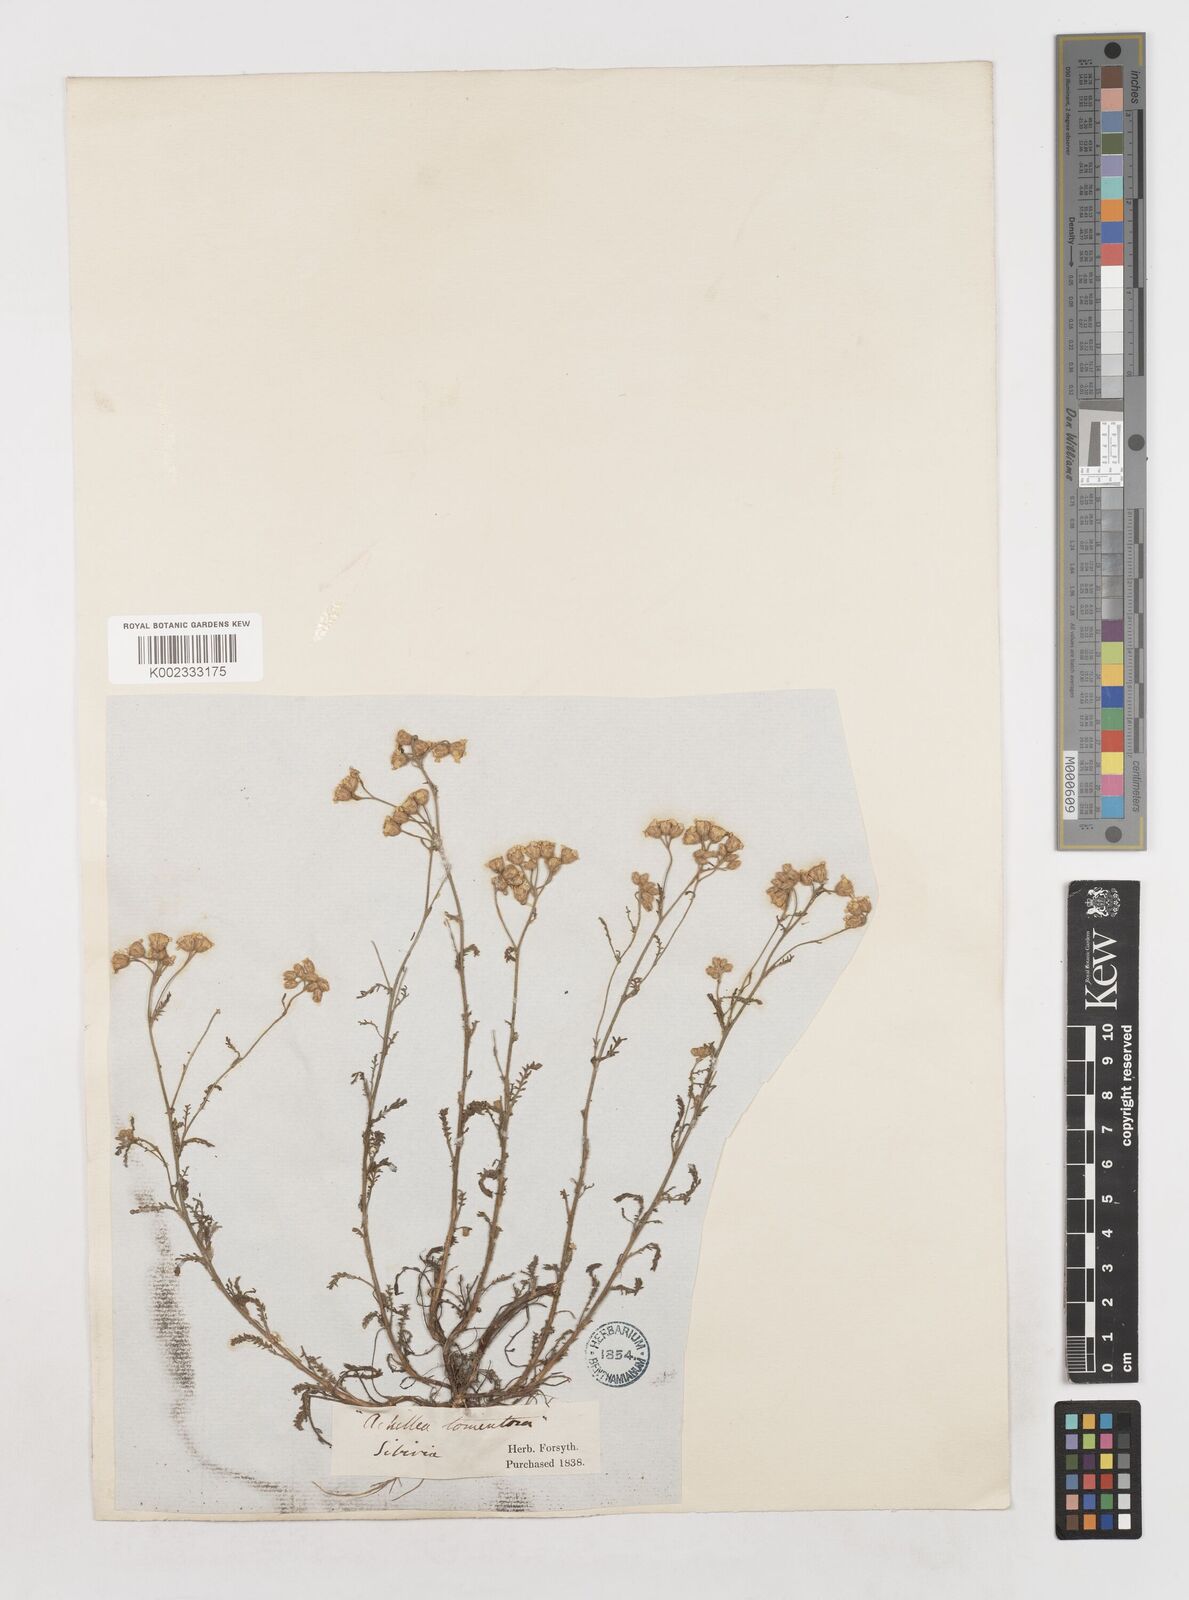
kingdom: Plantae
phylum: Tracheophyta
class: Magnoliopsida
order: Asterales
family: Asteraceae
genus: Achillea
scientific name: Achillea nobilis
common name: Noble yarrow
